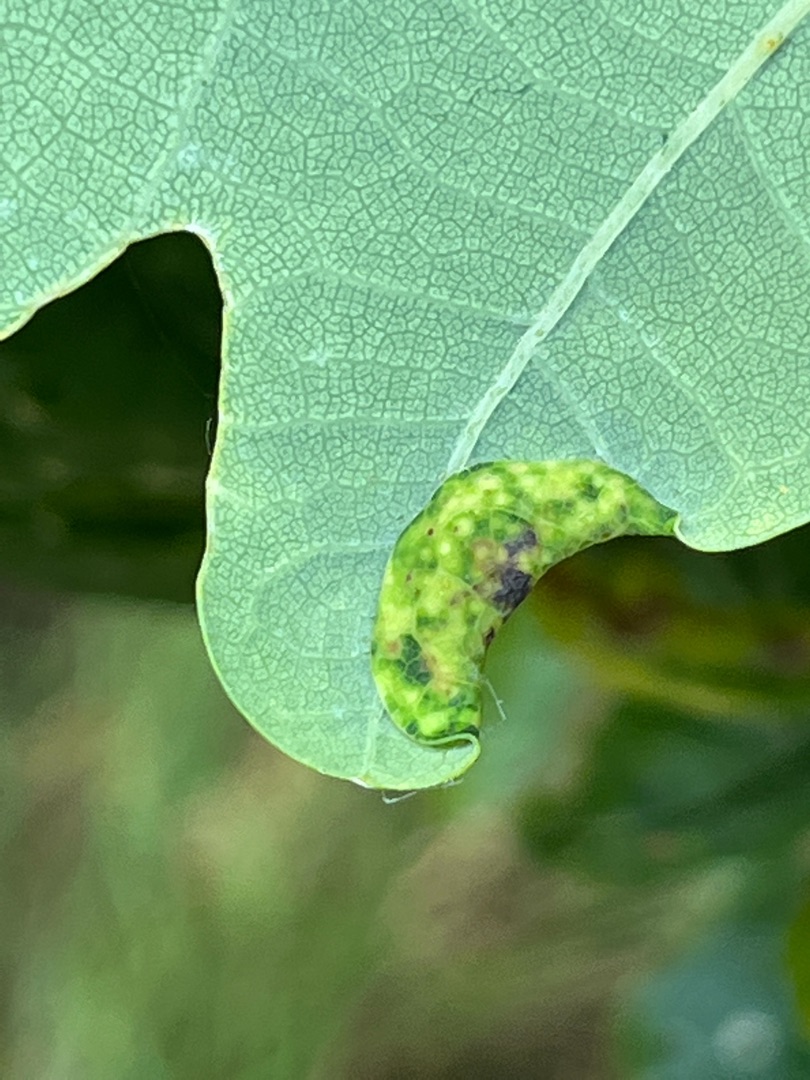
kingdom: Animalia
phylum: Arthropoda
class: Insecta
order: Diptera
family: Cecidomyiidae
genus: Macrodiplosis
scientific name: Macrodiplosis pustularis
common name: Marmorgalmyg
